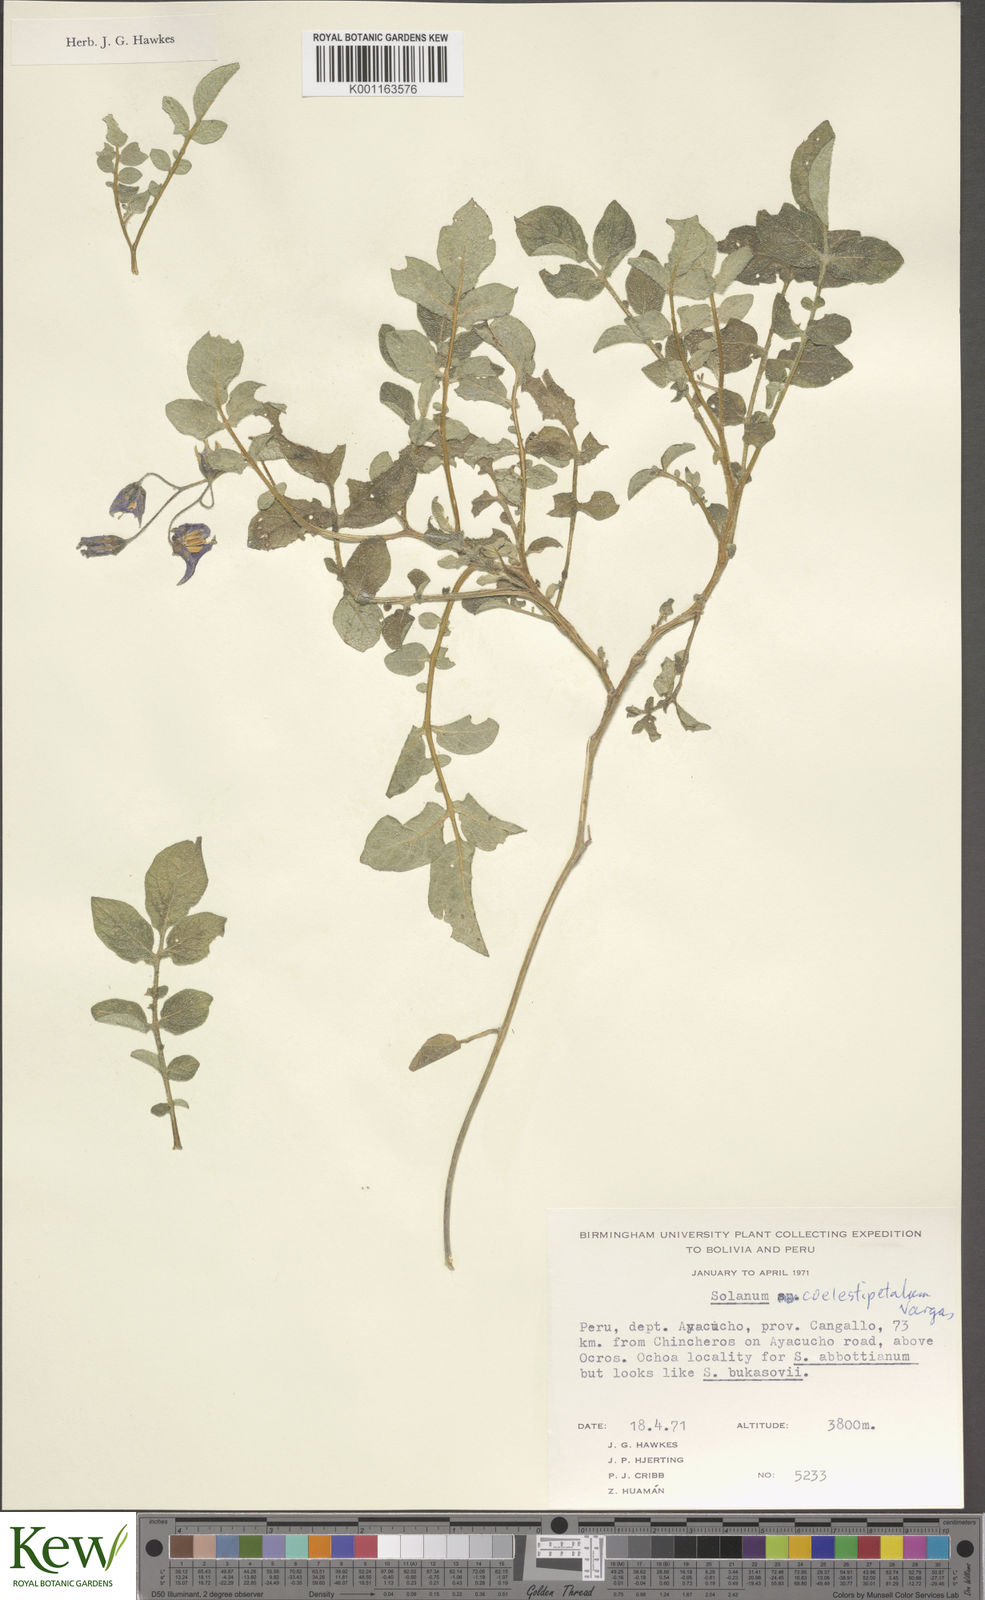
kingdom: Plantae
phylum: Tracheophyta
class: Magnoliopsida
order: Solanales
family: Solanaceae
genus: Solanum
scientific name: Solanum brevicaule
